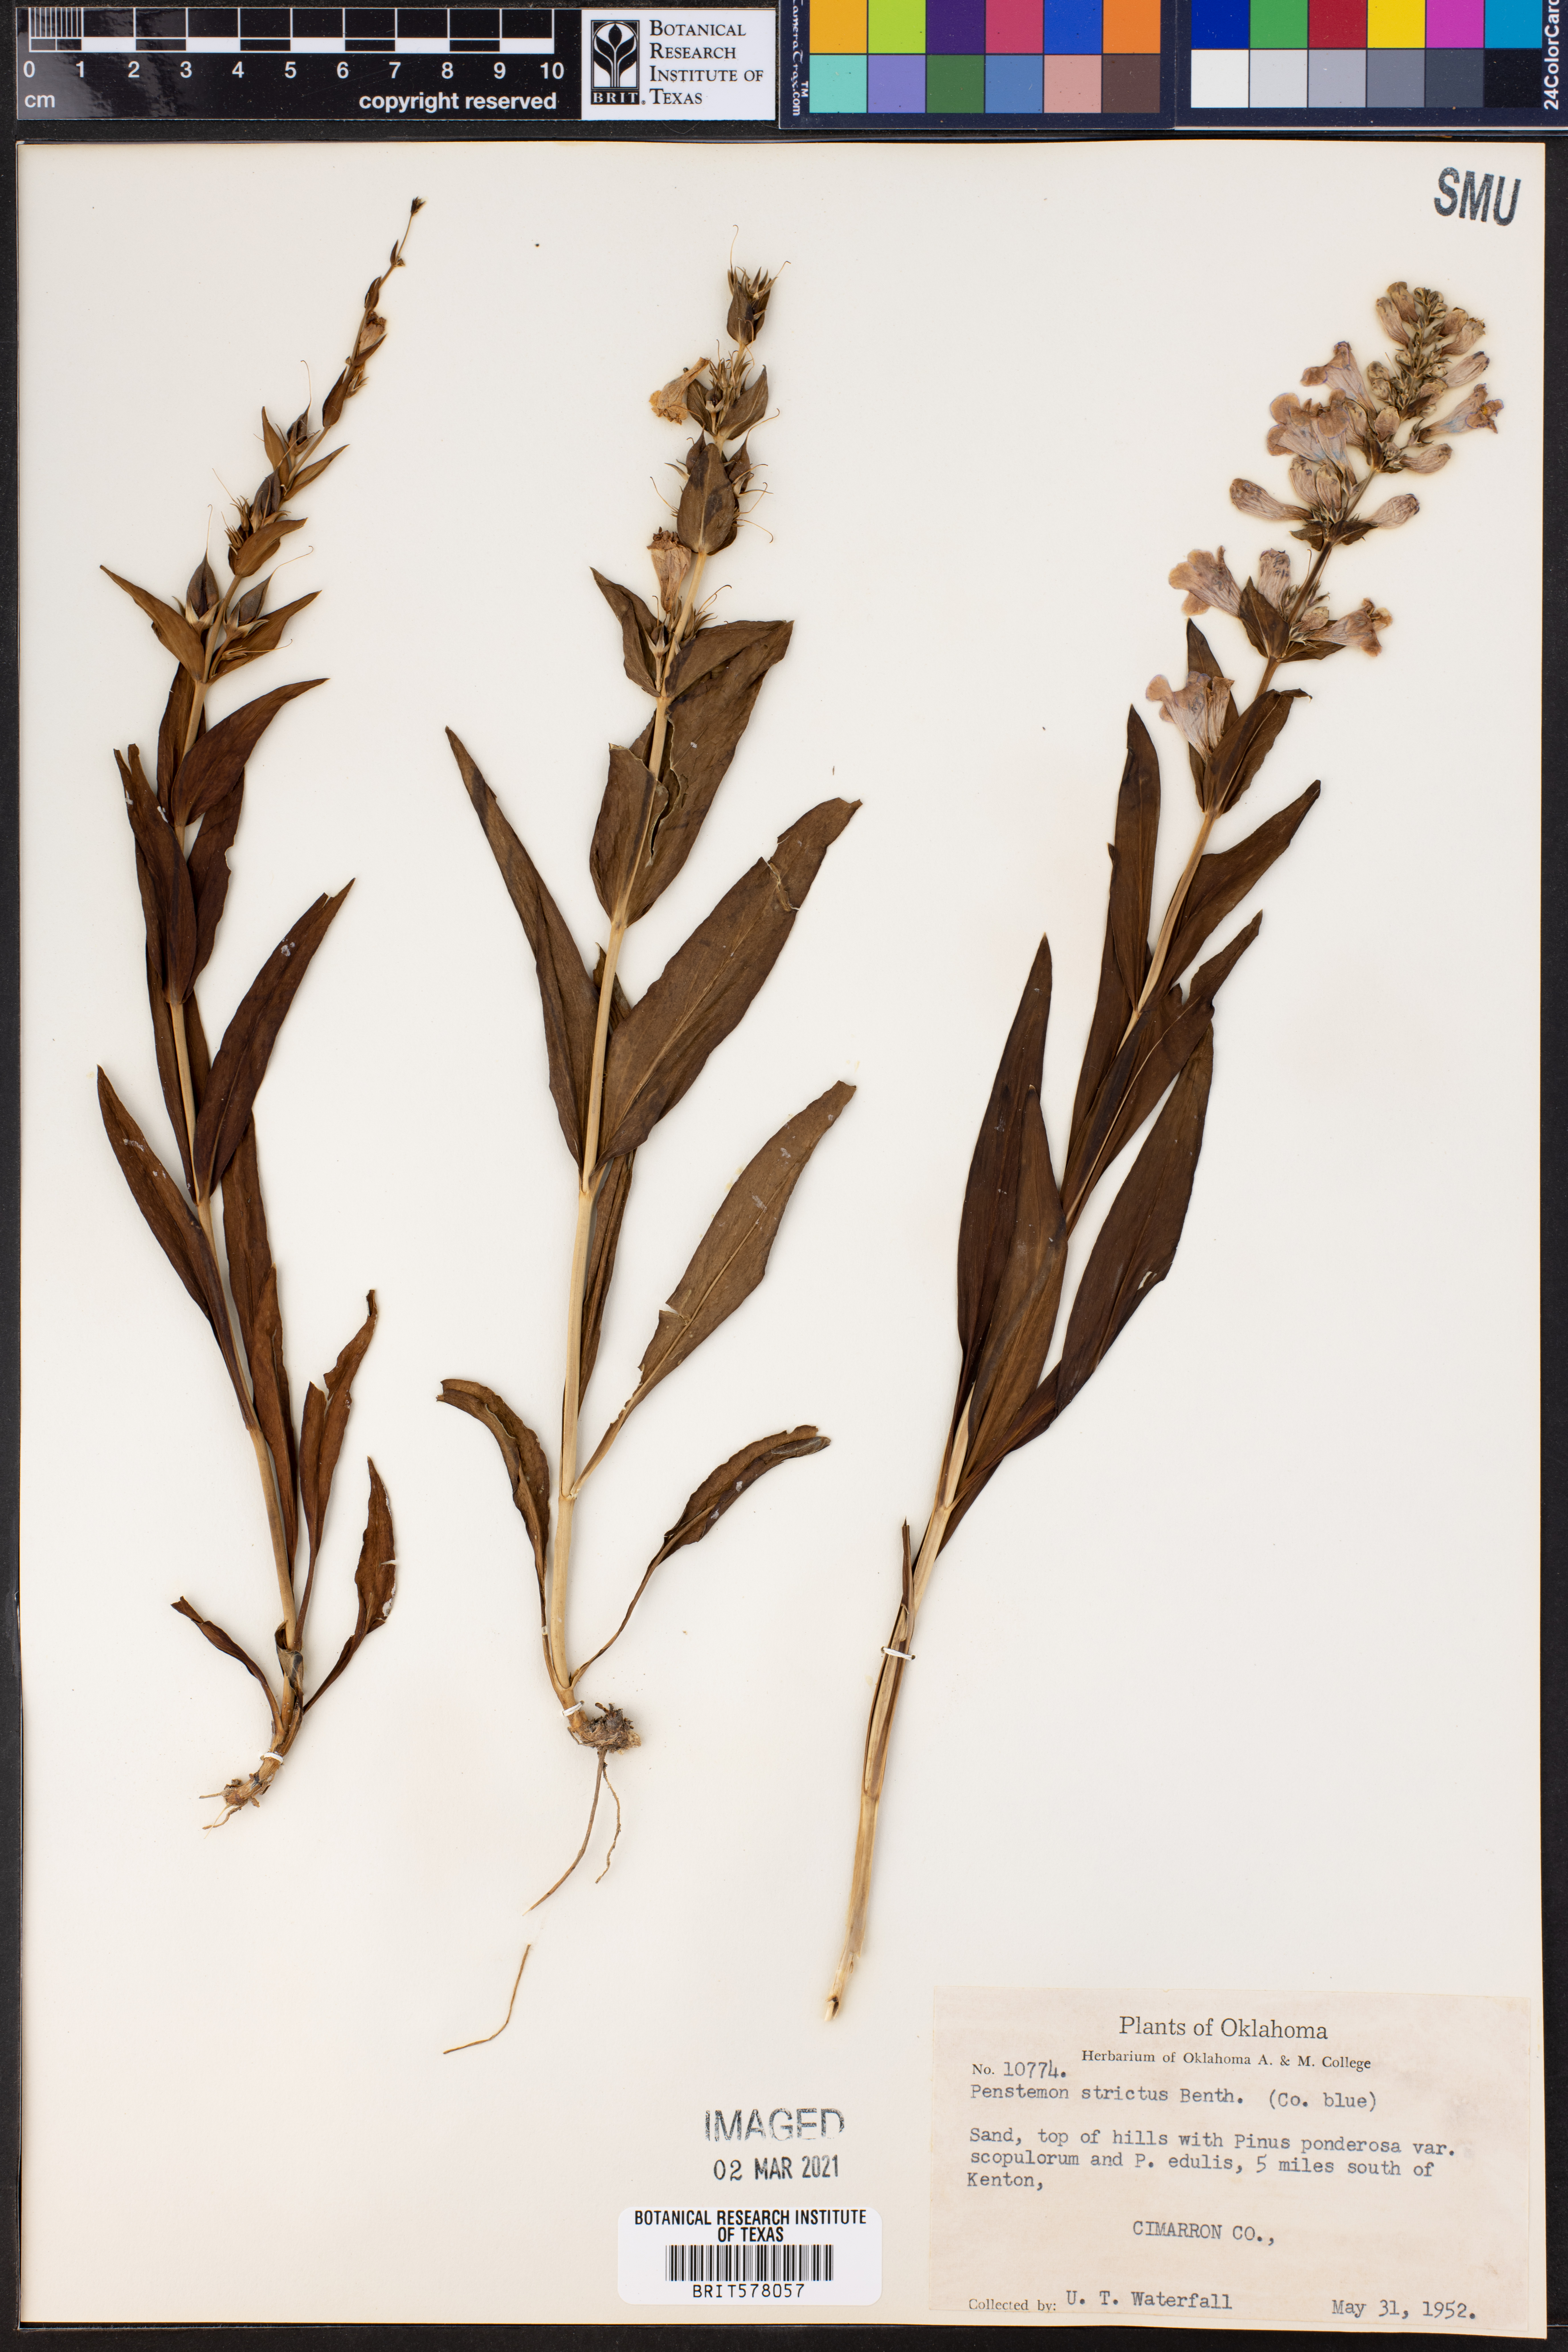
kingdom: Plantae
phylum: Tracheophyta
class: Magnoliopsida
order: Lamiales
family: Plantaginaceae
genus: Penstemon
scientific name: Penstemon strictus
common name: Rocky mountain penstemon
